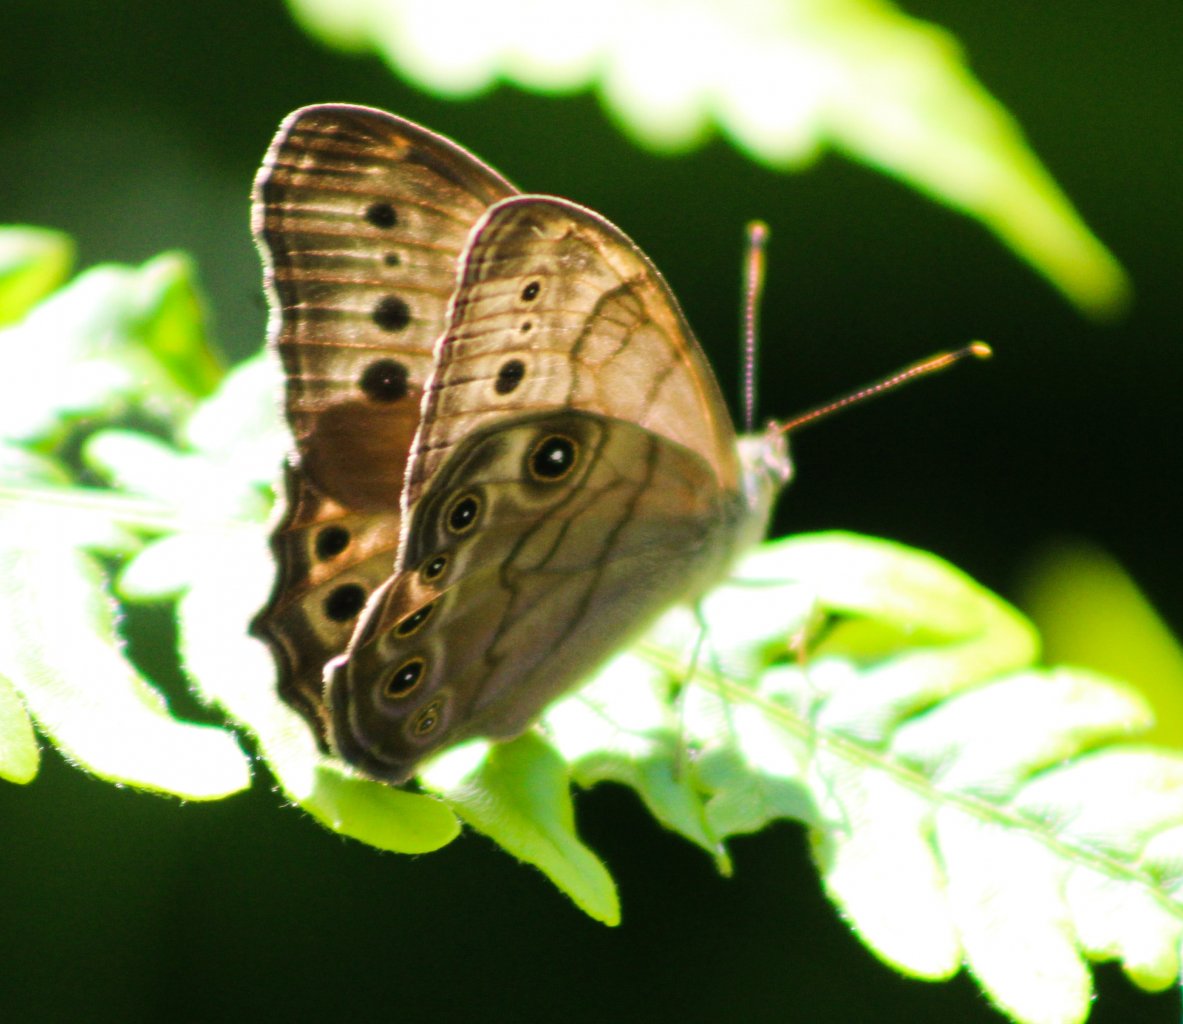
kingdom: Animalia
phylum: Arthropoda
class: Insecta
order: Lepidoptera
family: Nymphalidae
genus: Lethe
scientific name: Lethe anthedon
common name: Northern Pearly-Eye
